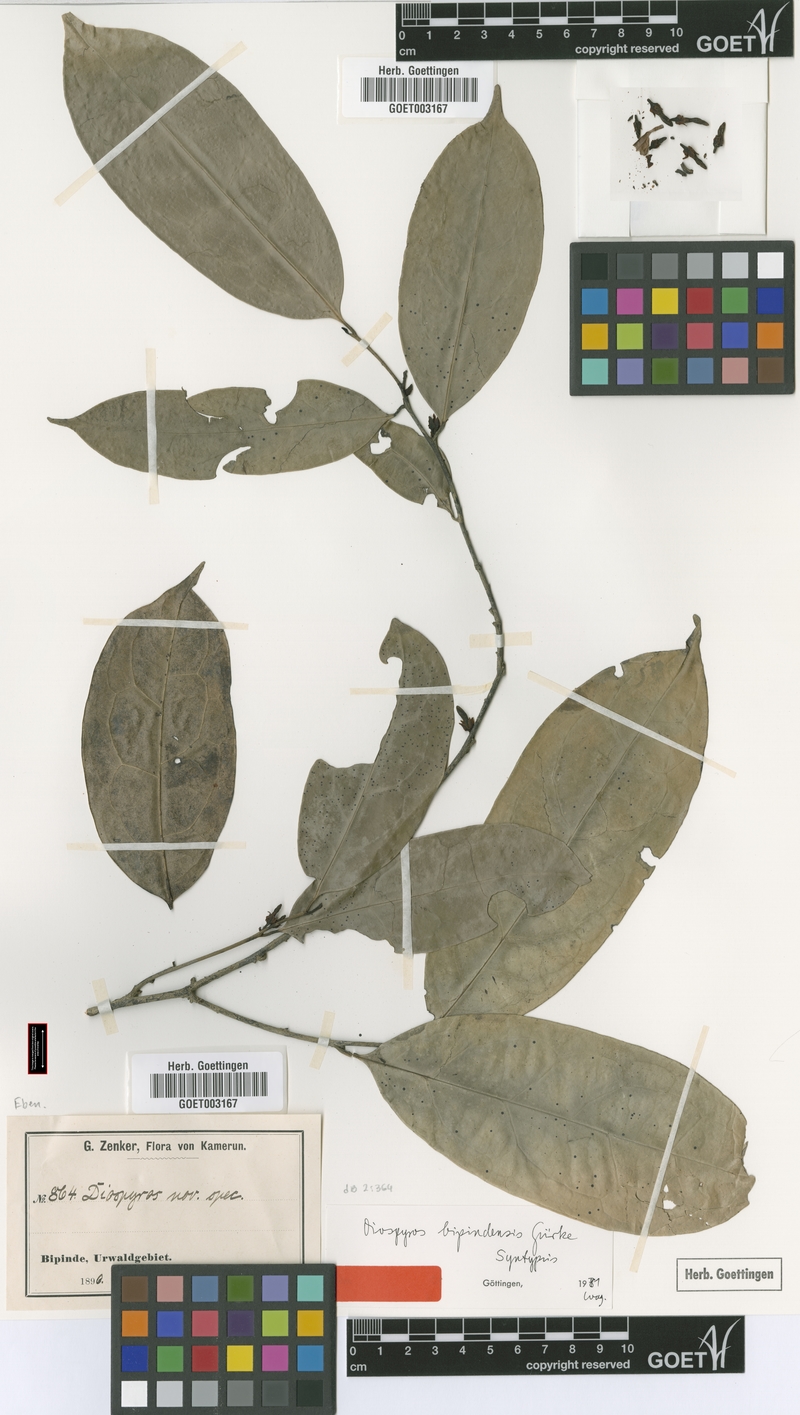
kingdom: Plantae
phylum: Tracheophyta
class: Magnoliopsida
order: Ericales
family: Ebenaceae
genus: Diospyros
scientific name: Diospyros bipindensis
